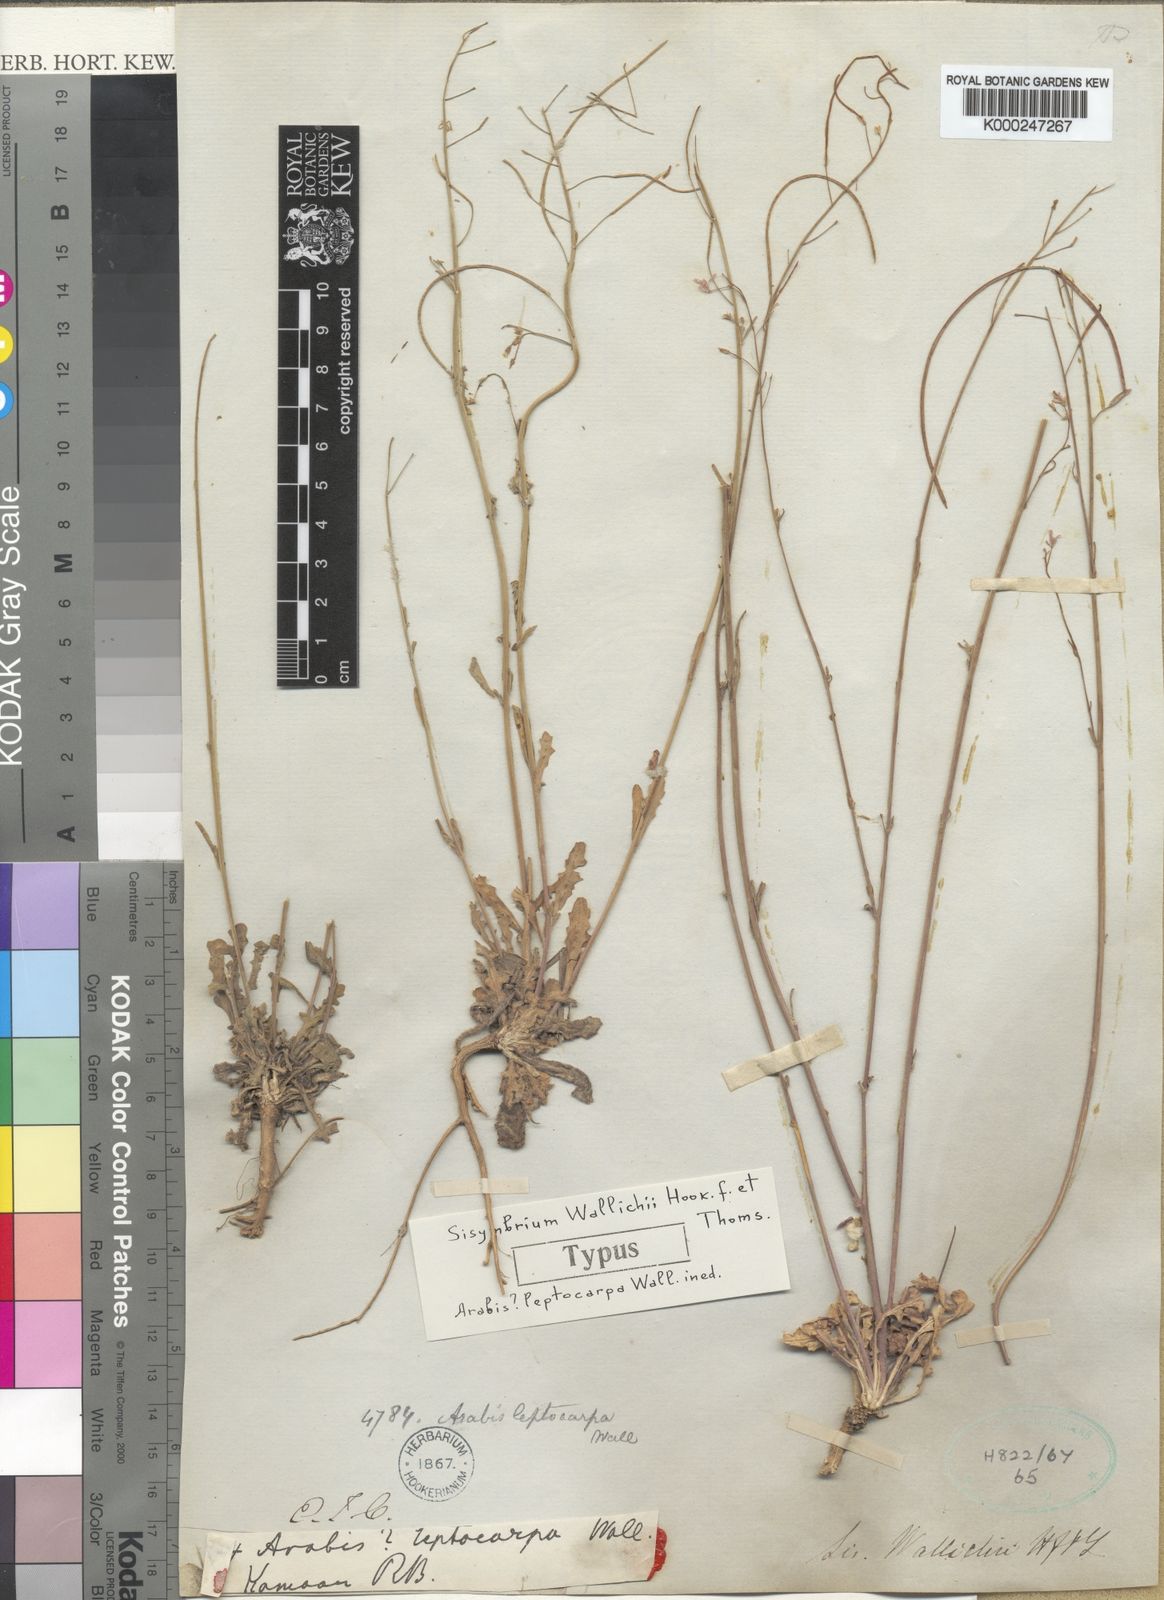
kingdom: Plantae
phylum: Tracheophyta
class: Magnoliopsida
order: Brassicales
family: Brassicaceae
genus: Crucihimalaya
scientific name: Crucihimalaya wallichii
